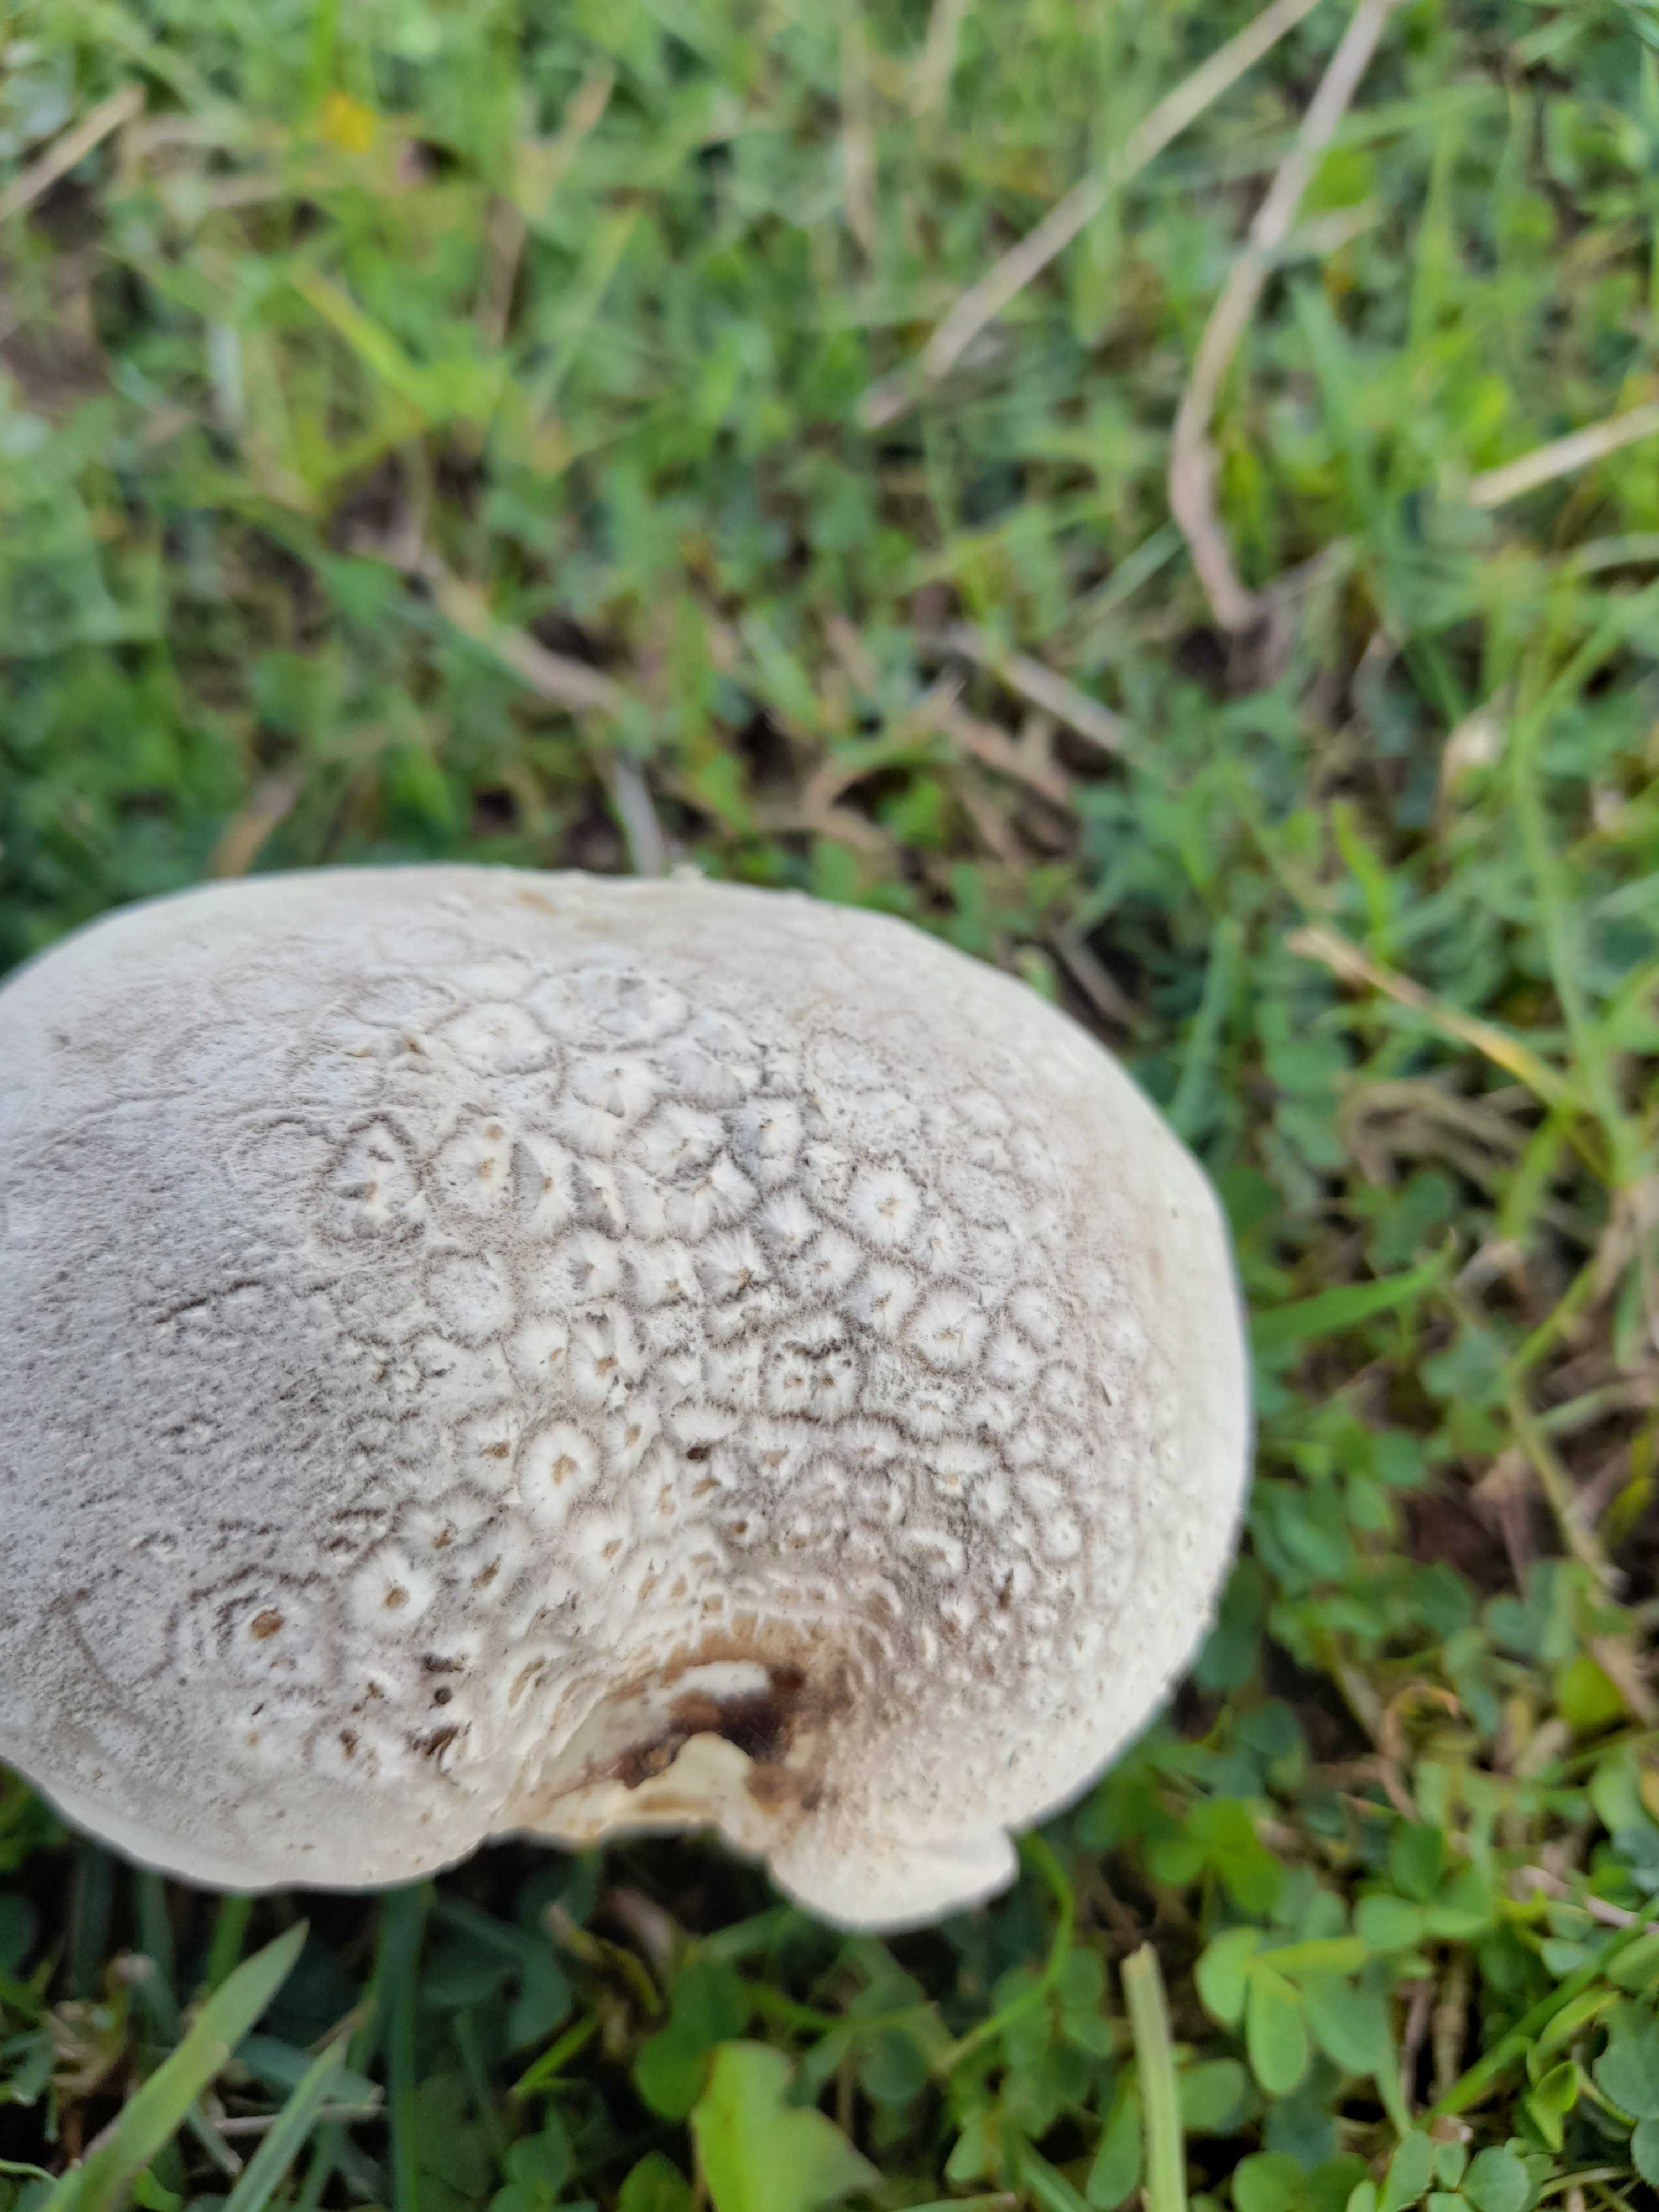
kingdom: Fungi
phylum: Basidiomycota
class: Agaricomycetes
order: Agaricales
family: Lycoperdaceae
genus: Bovistella
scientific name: Bovistella utriformis
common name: skællet støvbold
